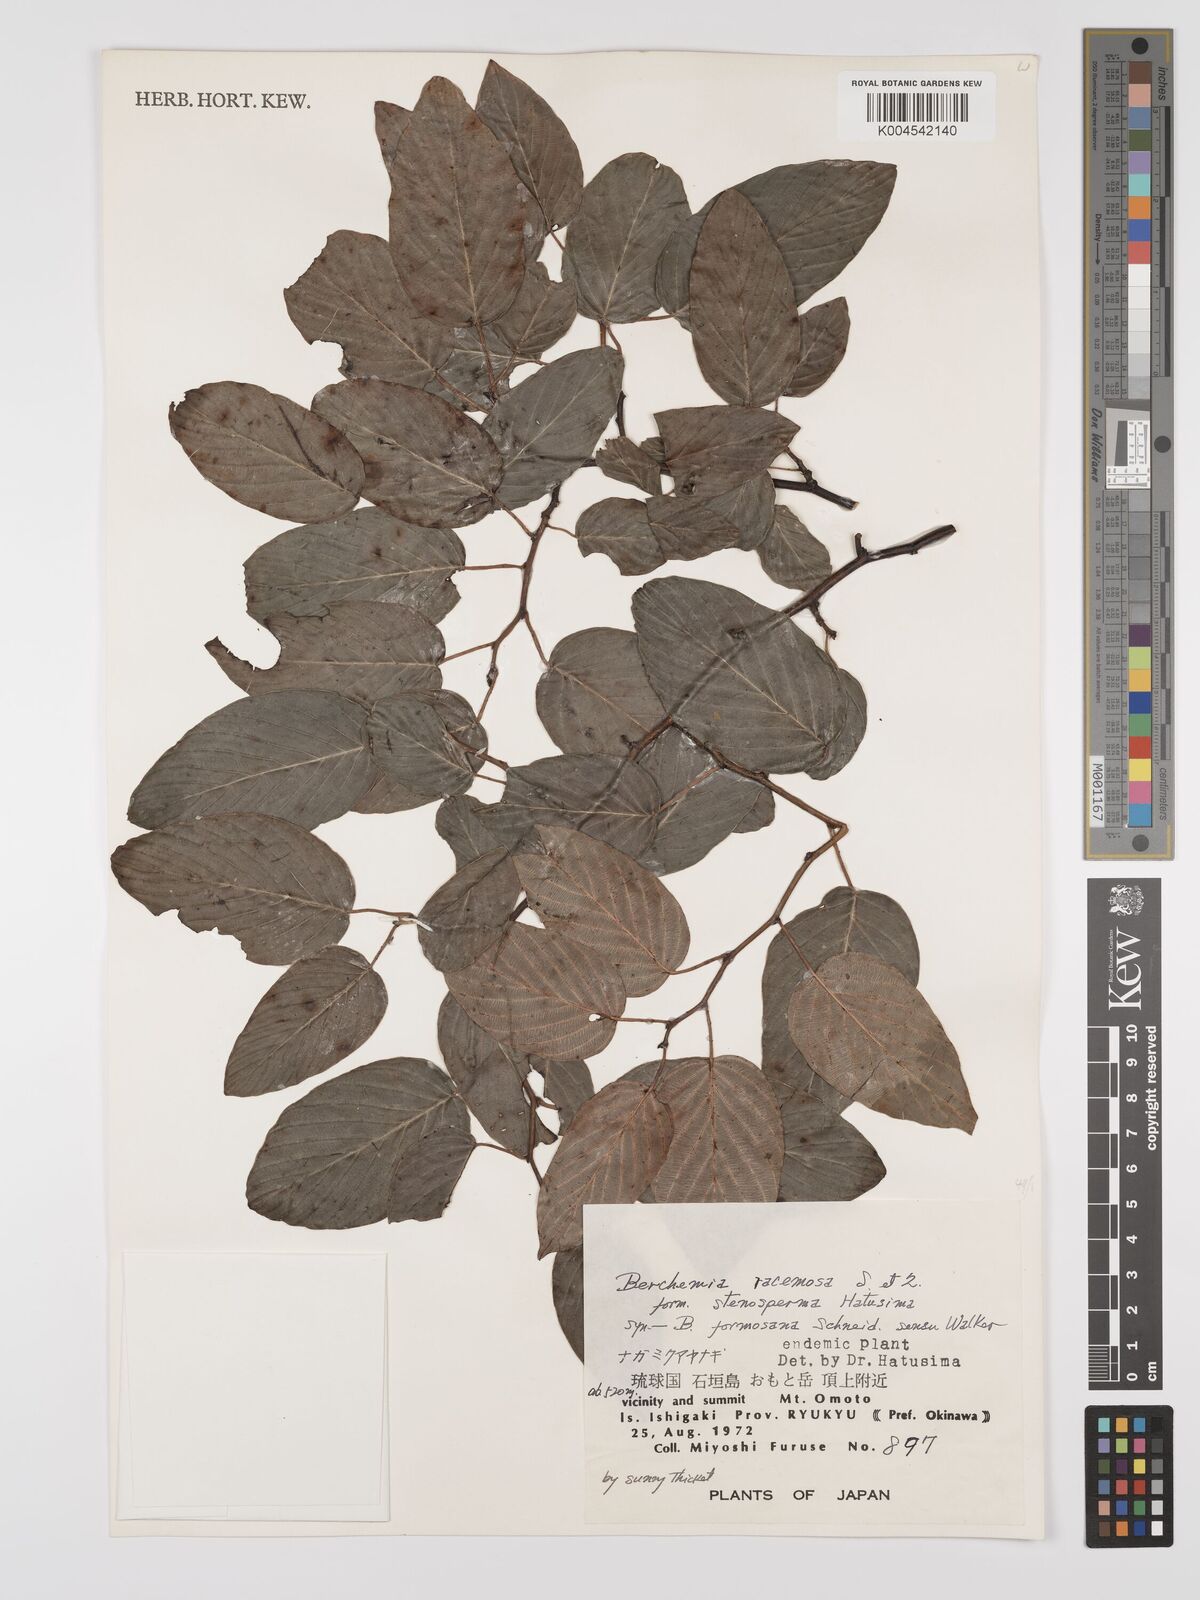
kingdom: Plantae
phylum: Tracheophyta
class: Magnoliopsida
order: Rosales
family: Rhamnaceae
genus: Berchemia
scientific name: Berchemia floribunda
